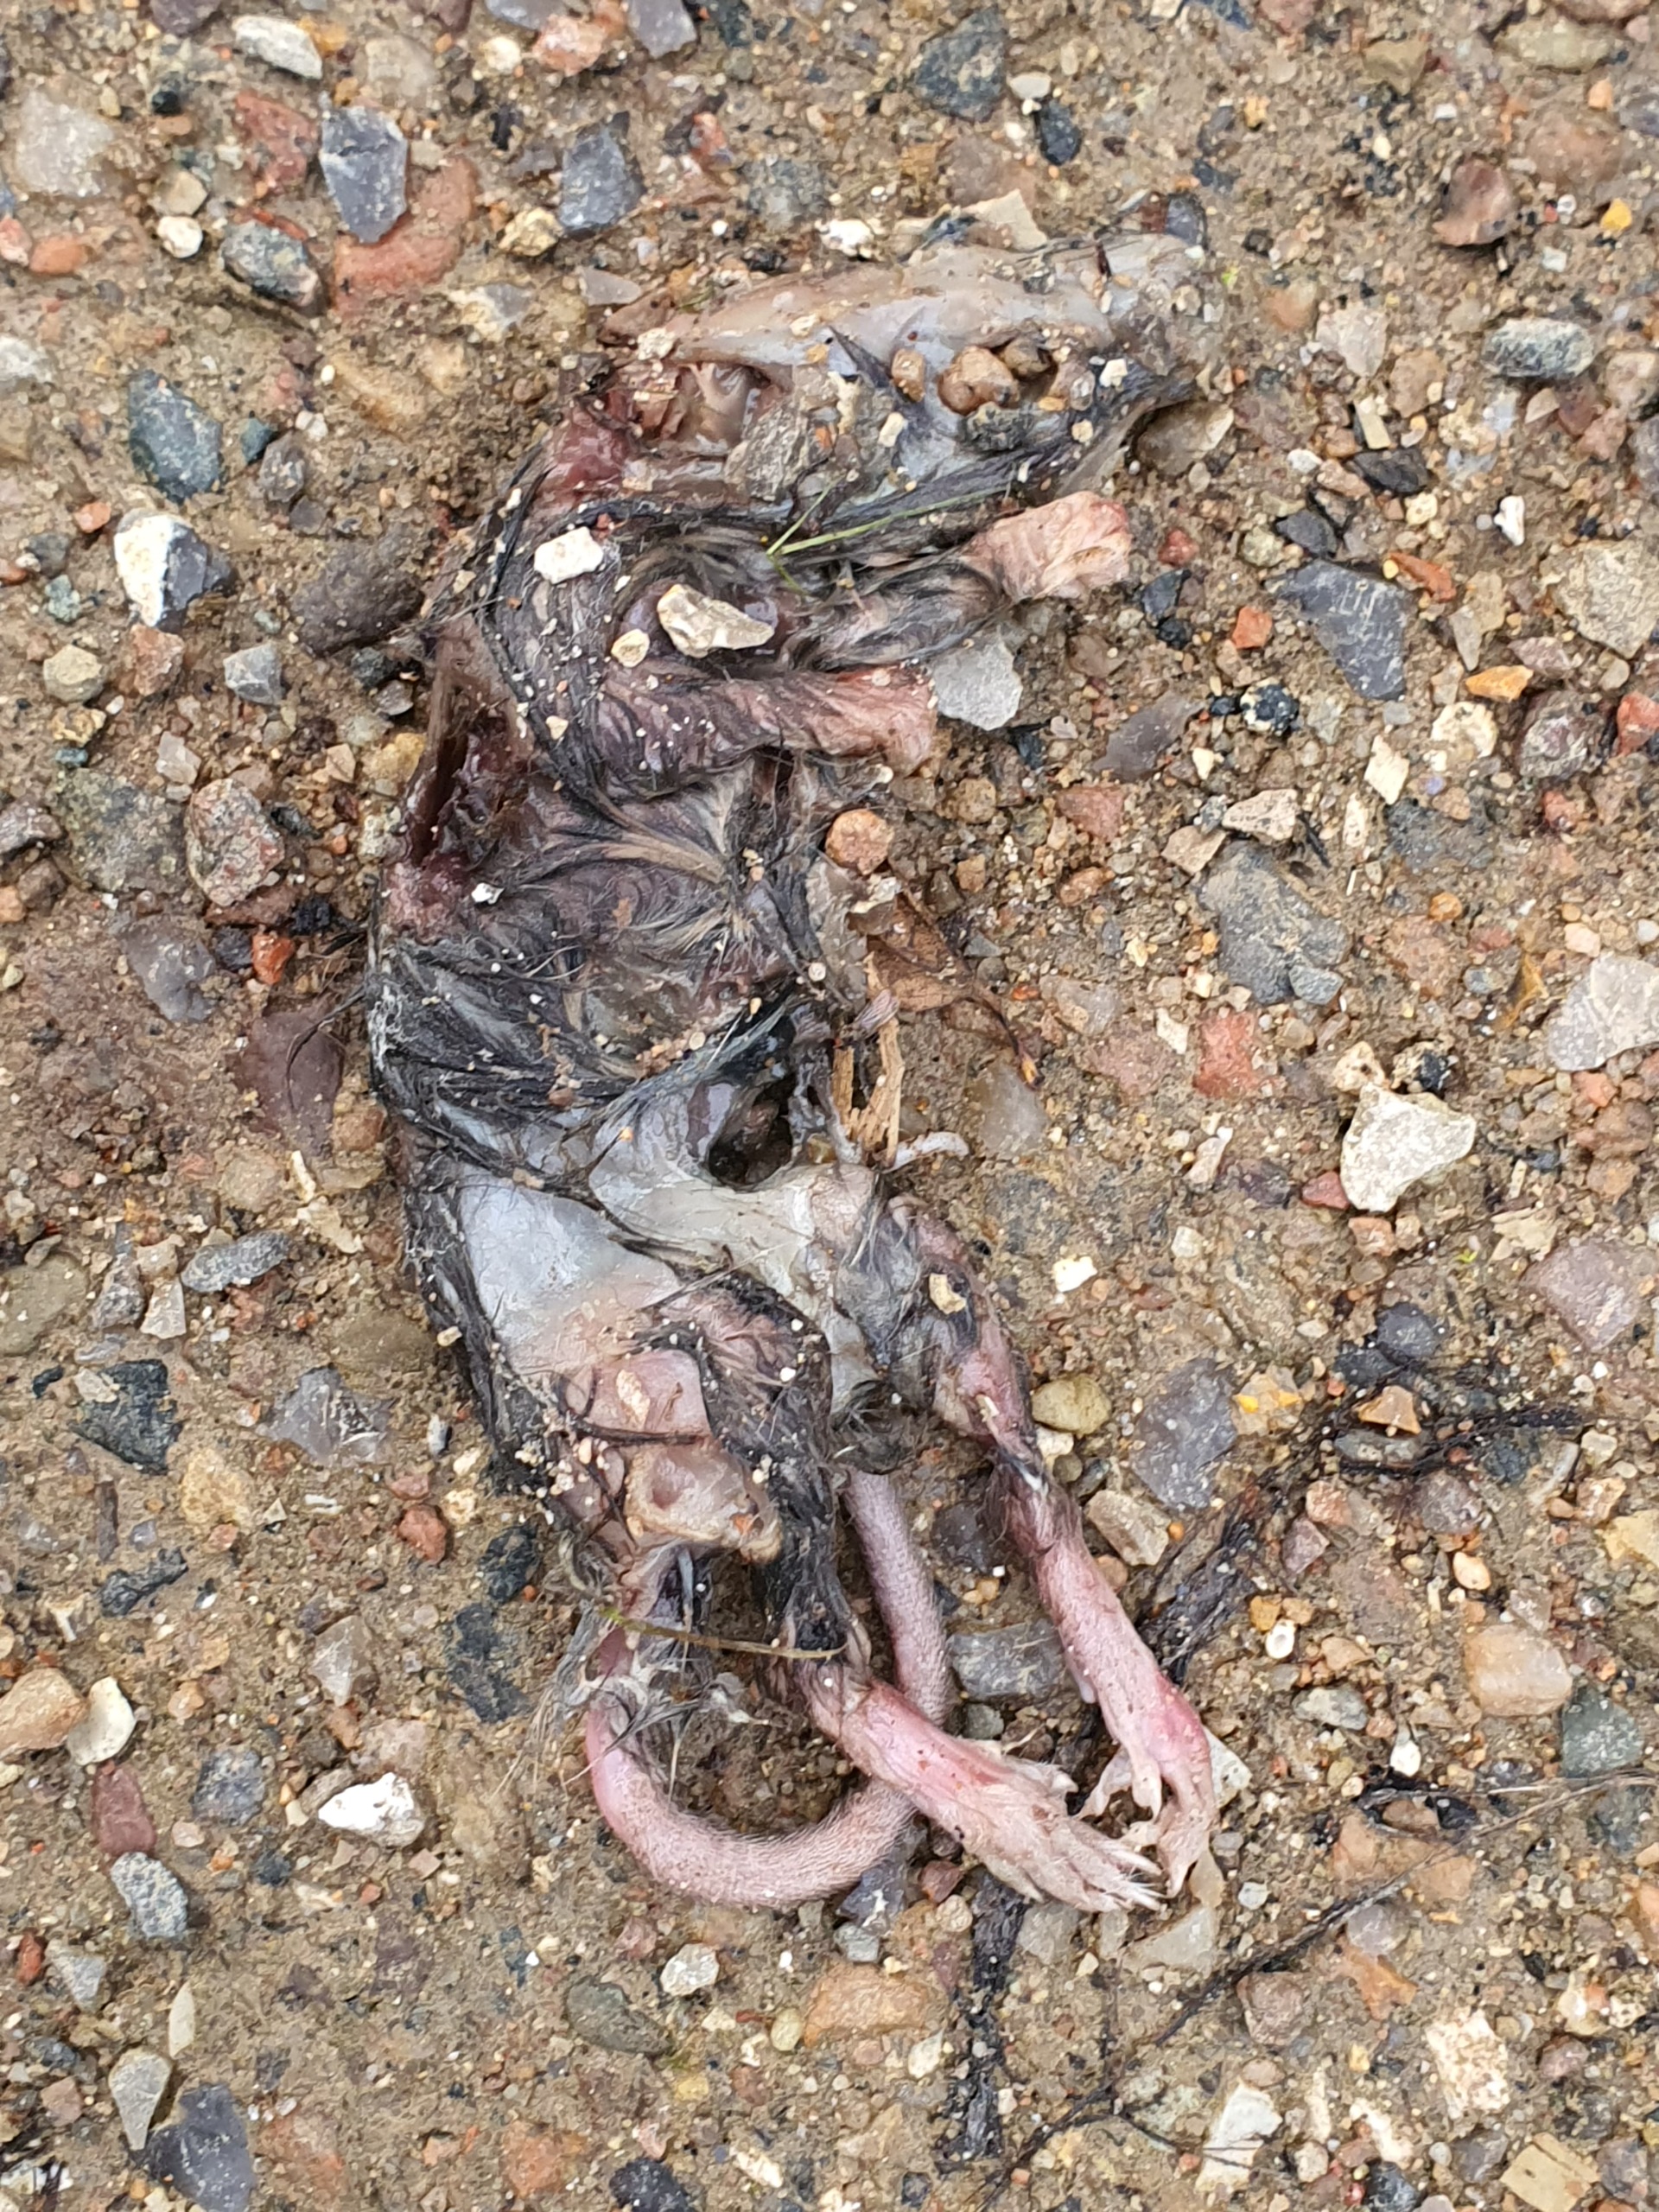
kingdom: Animalia
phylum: Chordata
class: Mammalia
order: Rodentia
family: Muridae
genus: Rattus
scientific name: Rattus norvegicus
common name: Brun rotte
